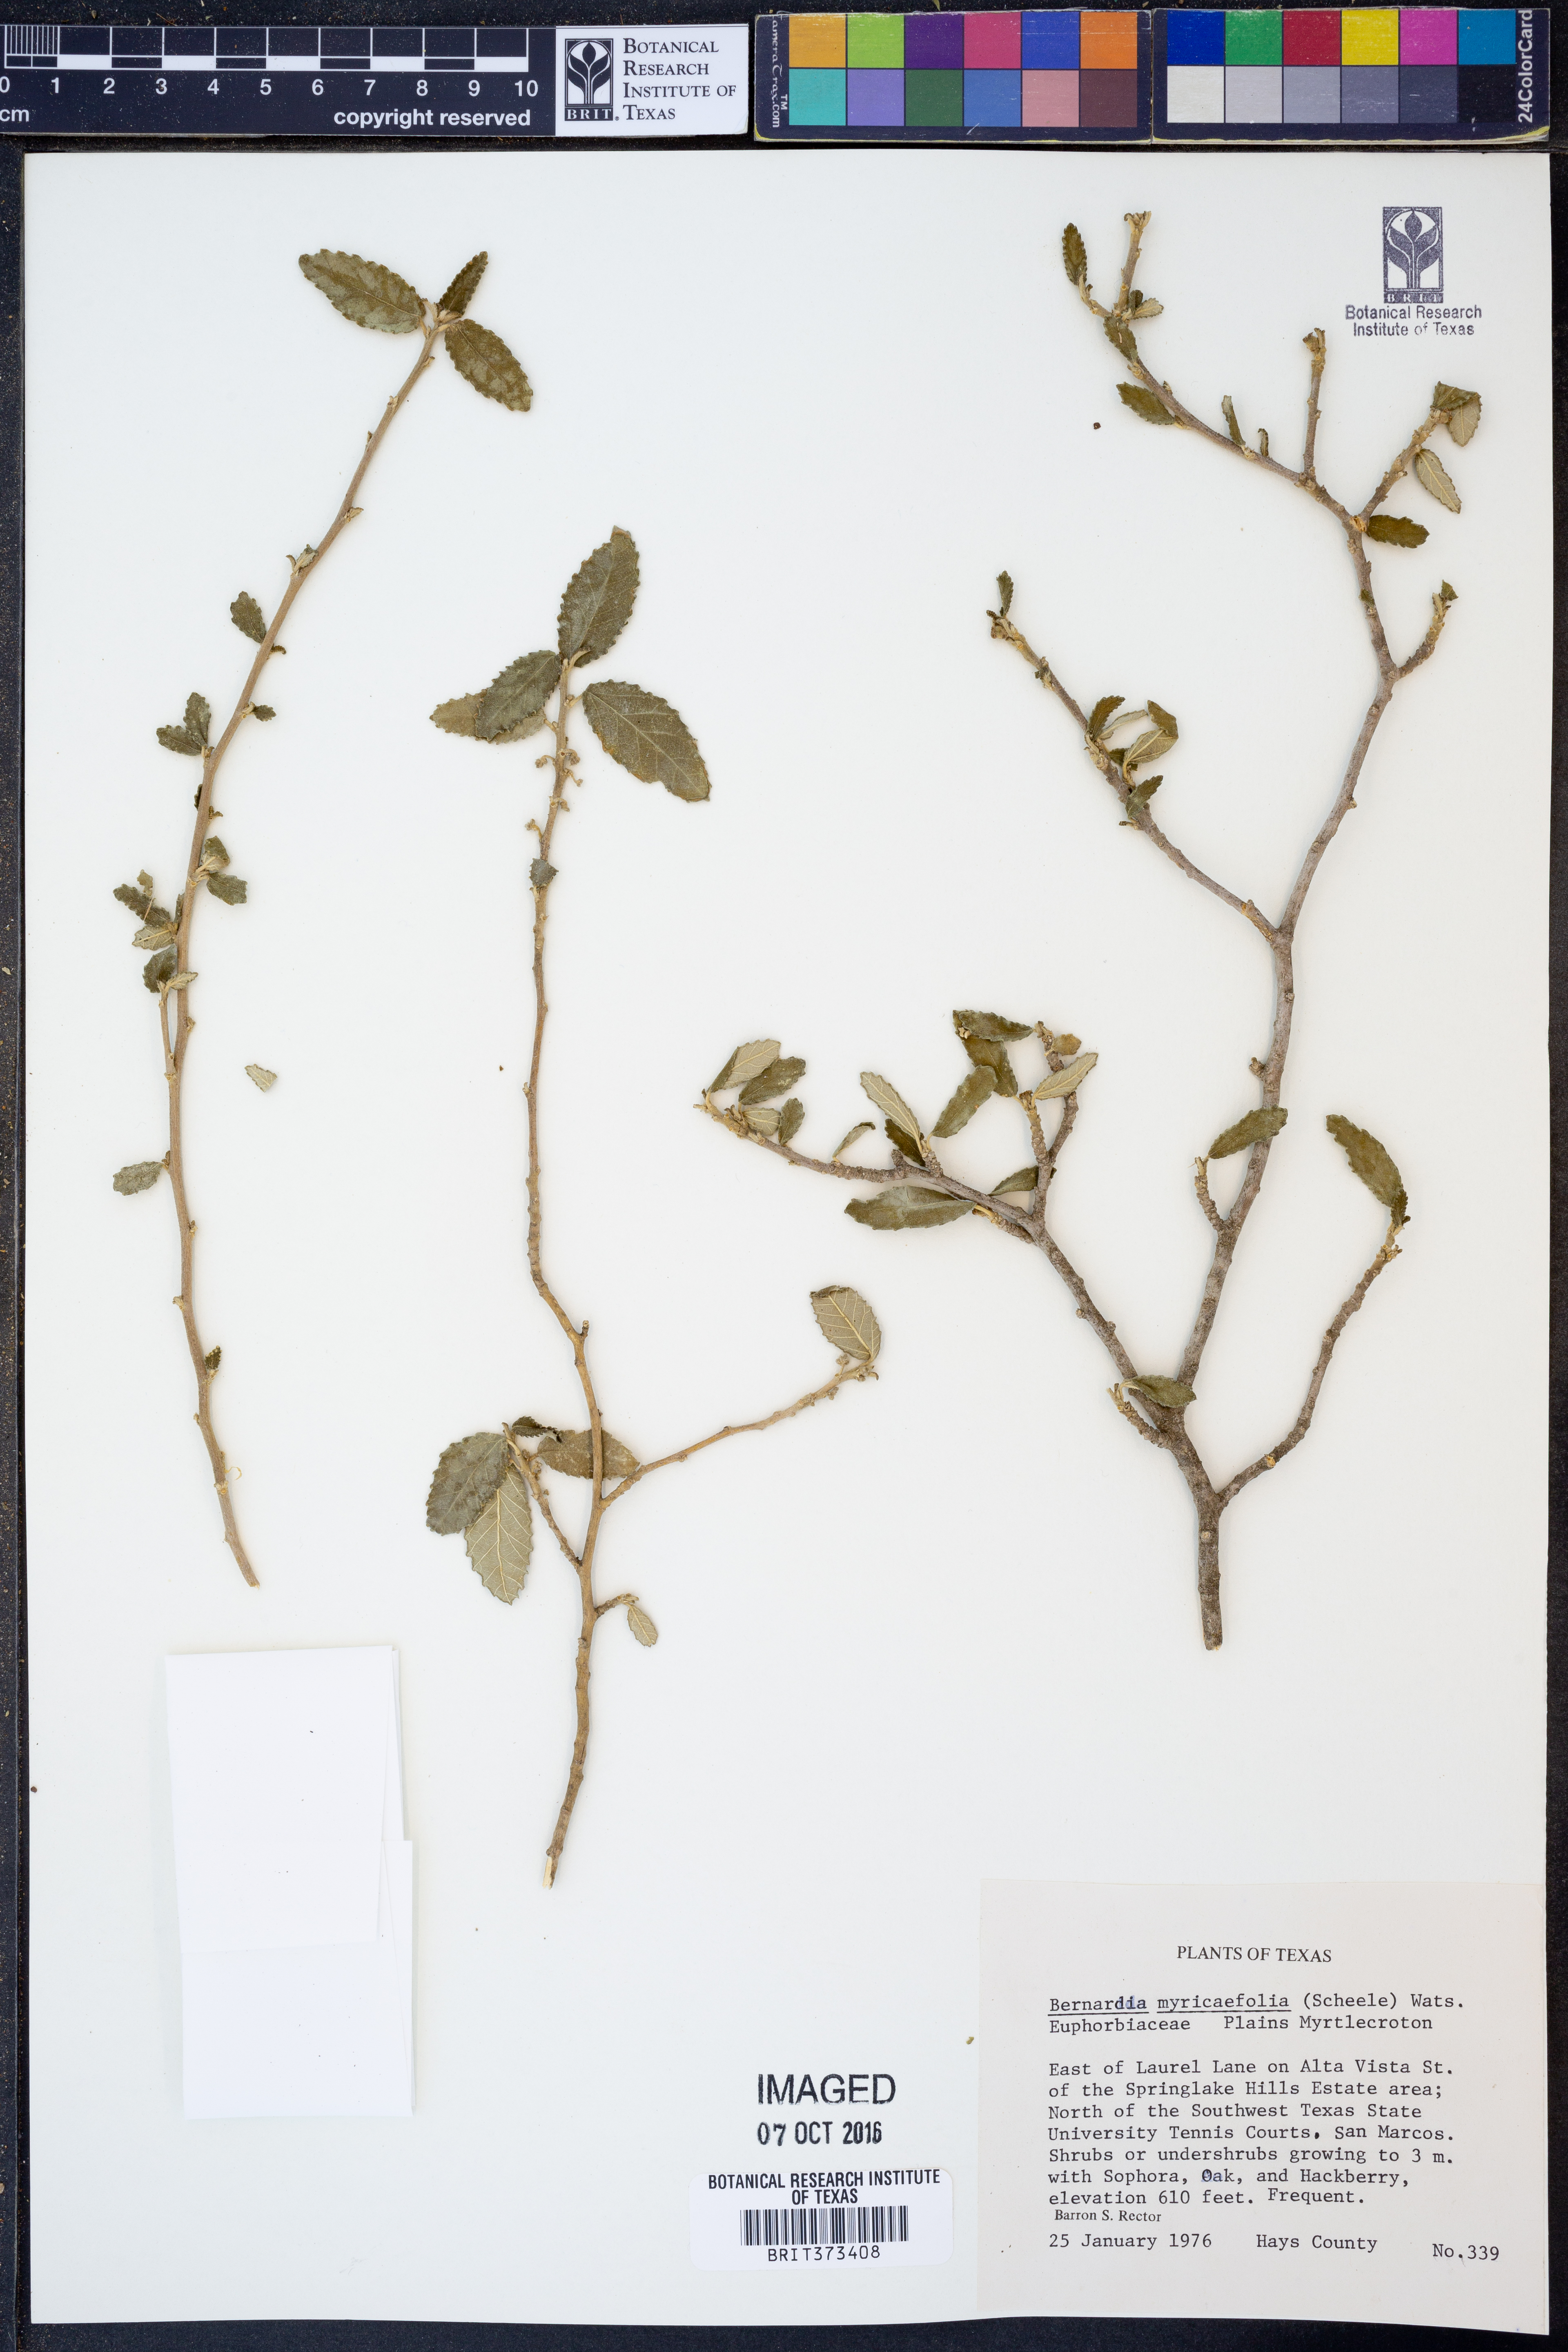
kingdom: Plantae
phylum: Tracheophyta
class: Magnoliopsida
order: Malpighiales
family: Euphorbiaceae
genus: Bernardia
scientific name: Bernardia myricifolia
